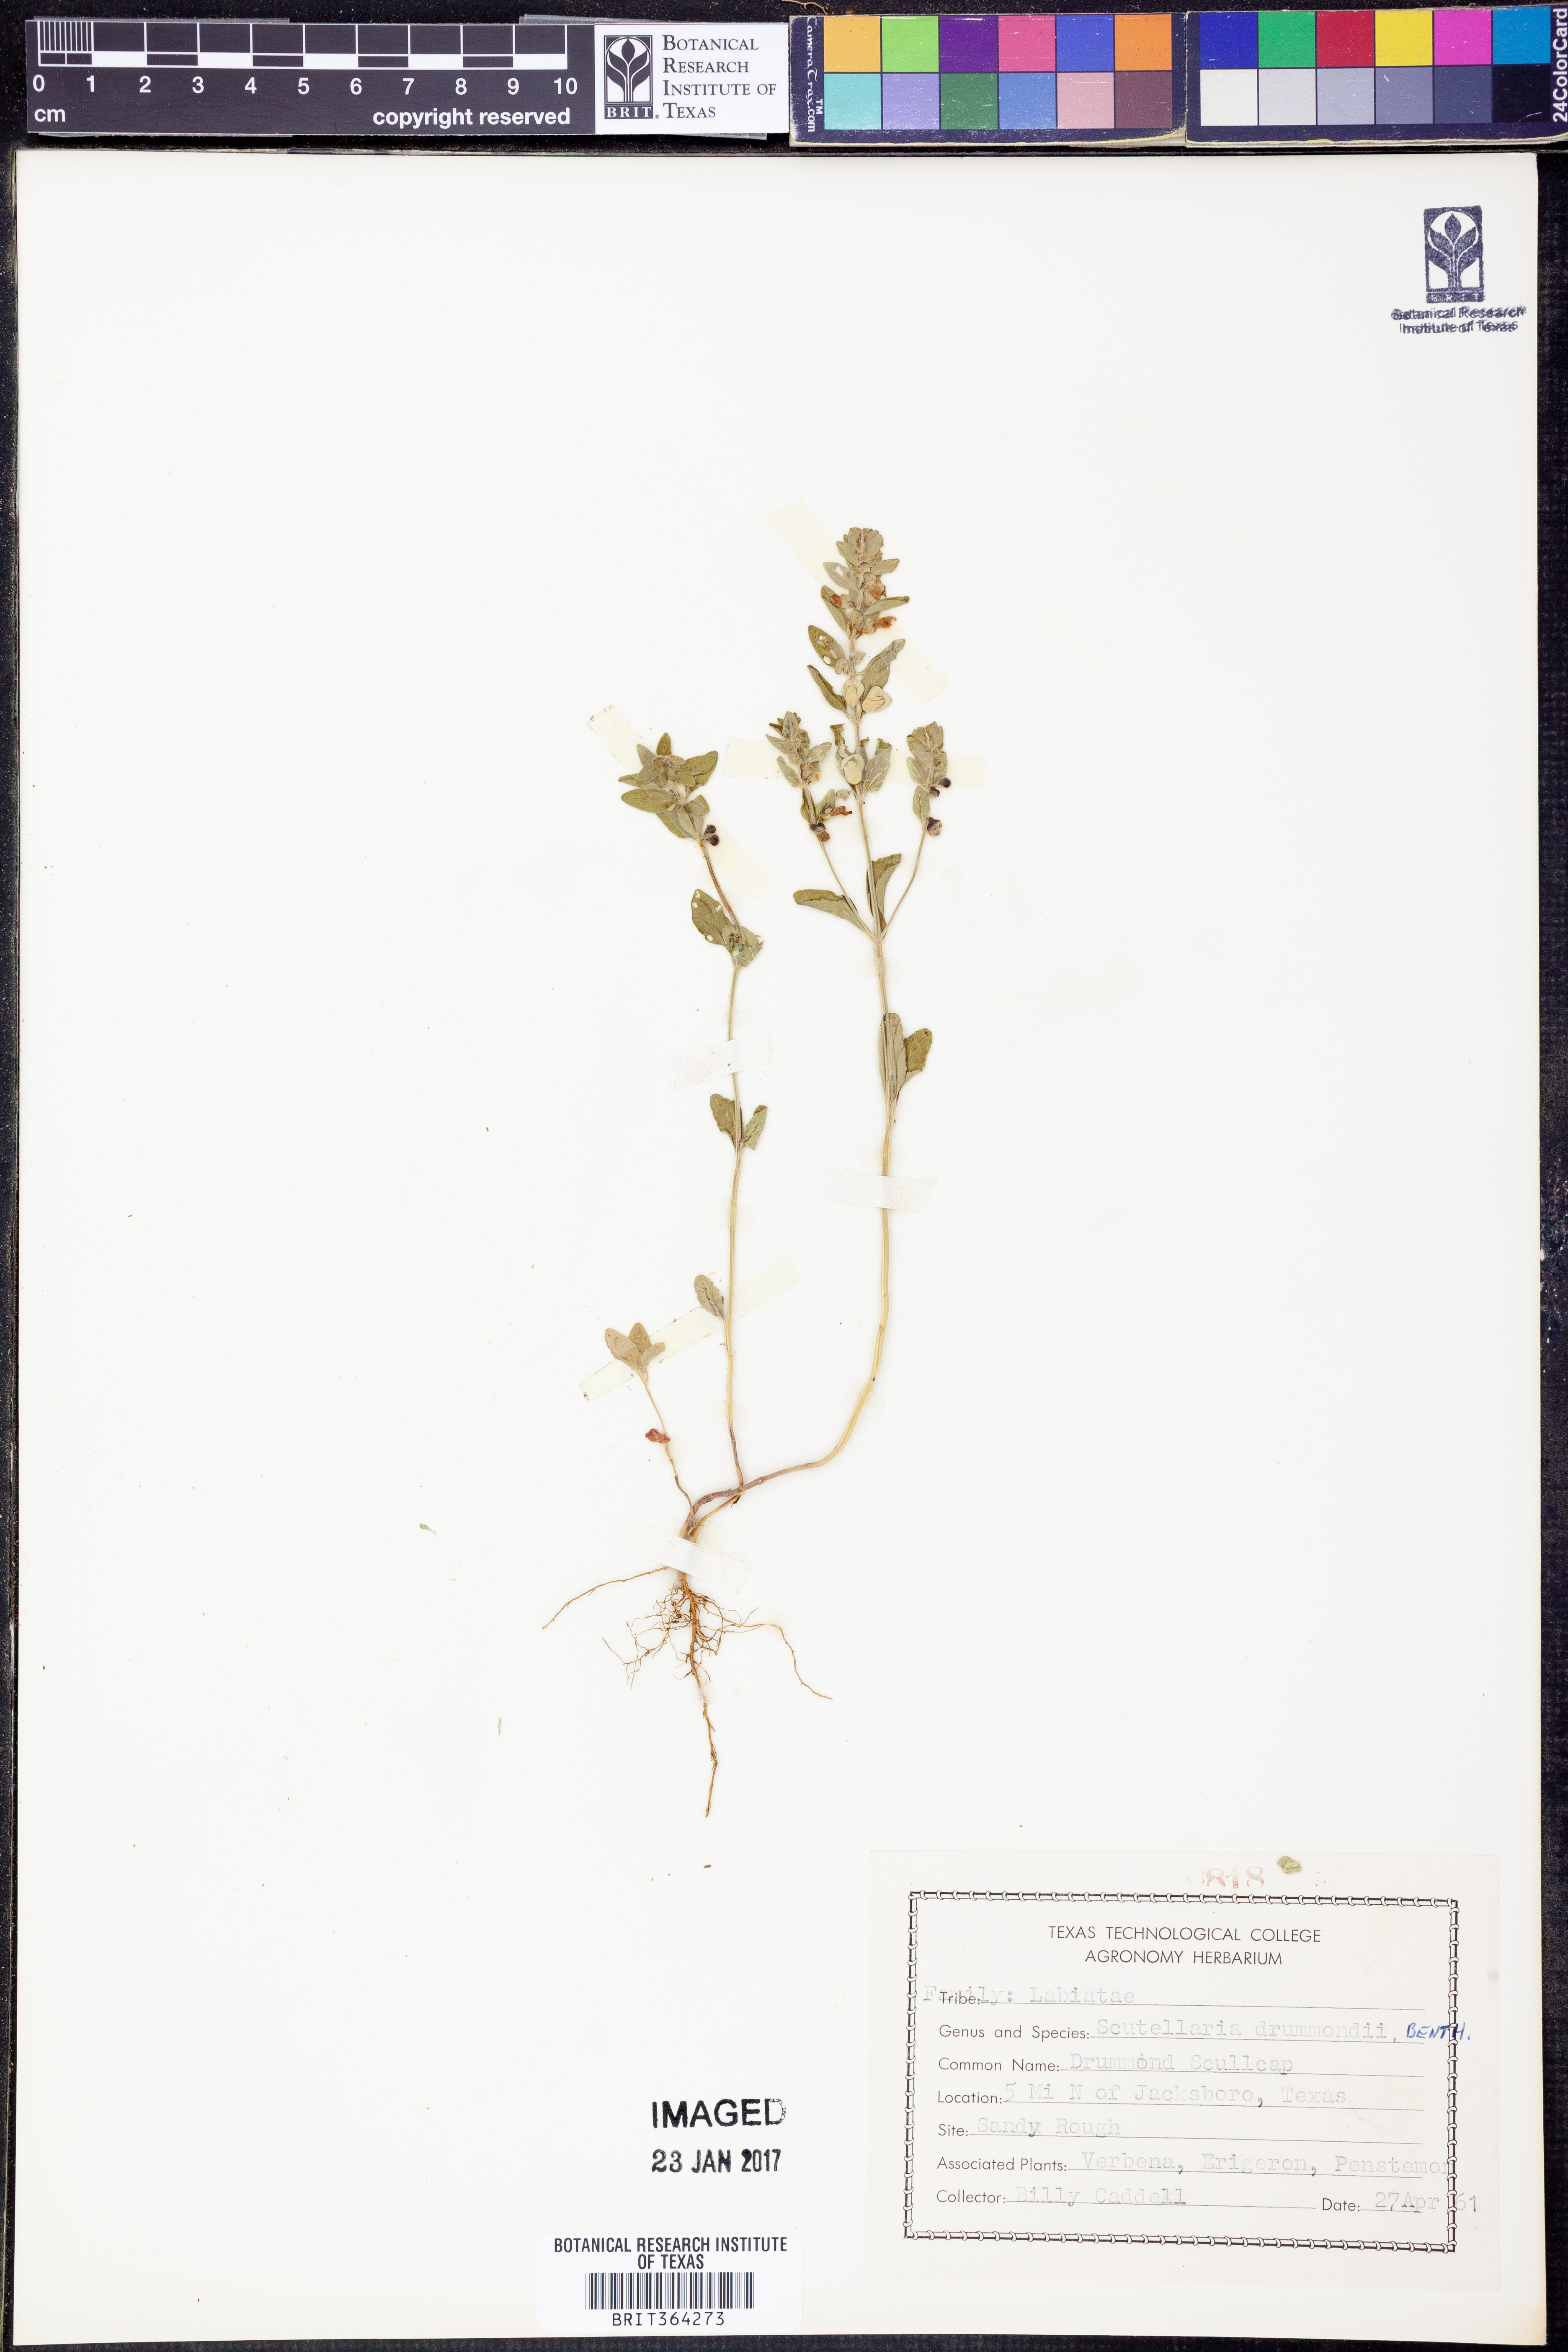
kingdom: Plantae
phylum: Tracheophyta
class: Magnoliopsida
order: Lamiales
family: Lamiaceae
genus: Scutellaria
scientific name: Scutellaria drummondii
